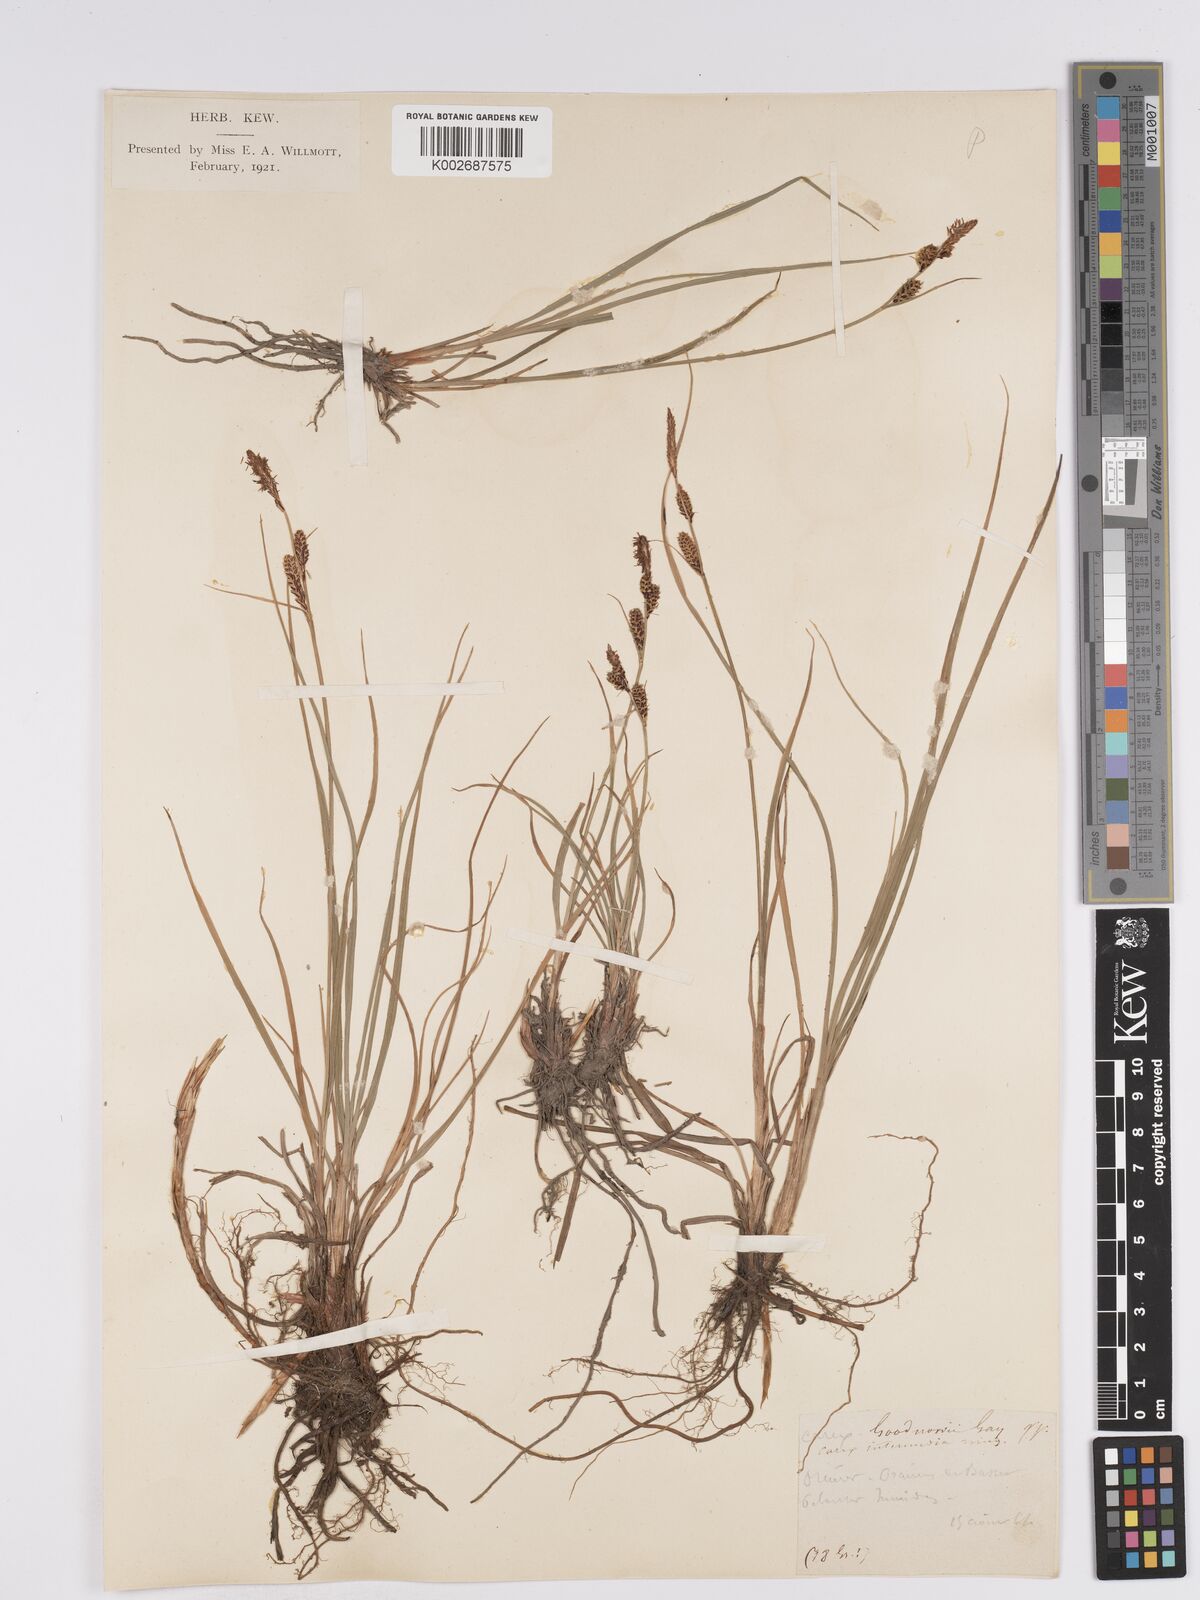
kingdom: Plantae
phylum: Tracheophyta
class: Liliopsida
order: Poales
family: Cyperaceae
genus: Carex
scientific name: Carex nigra
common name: Common sedge
